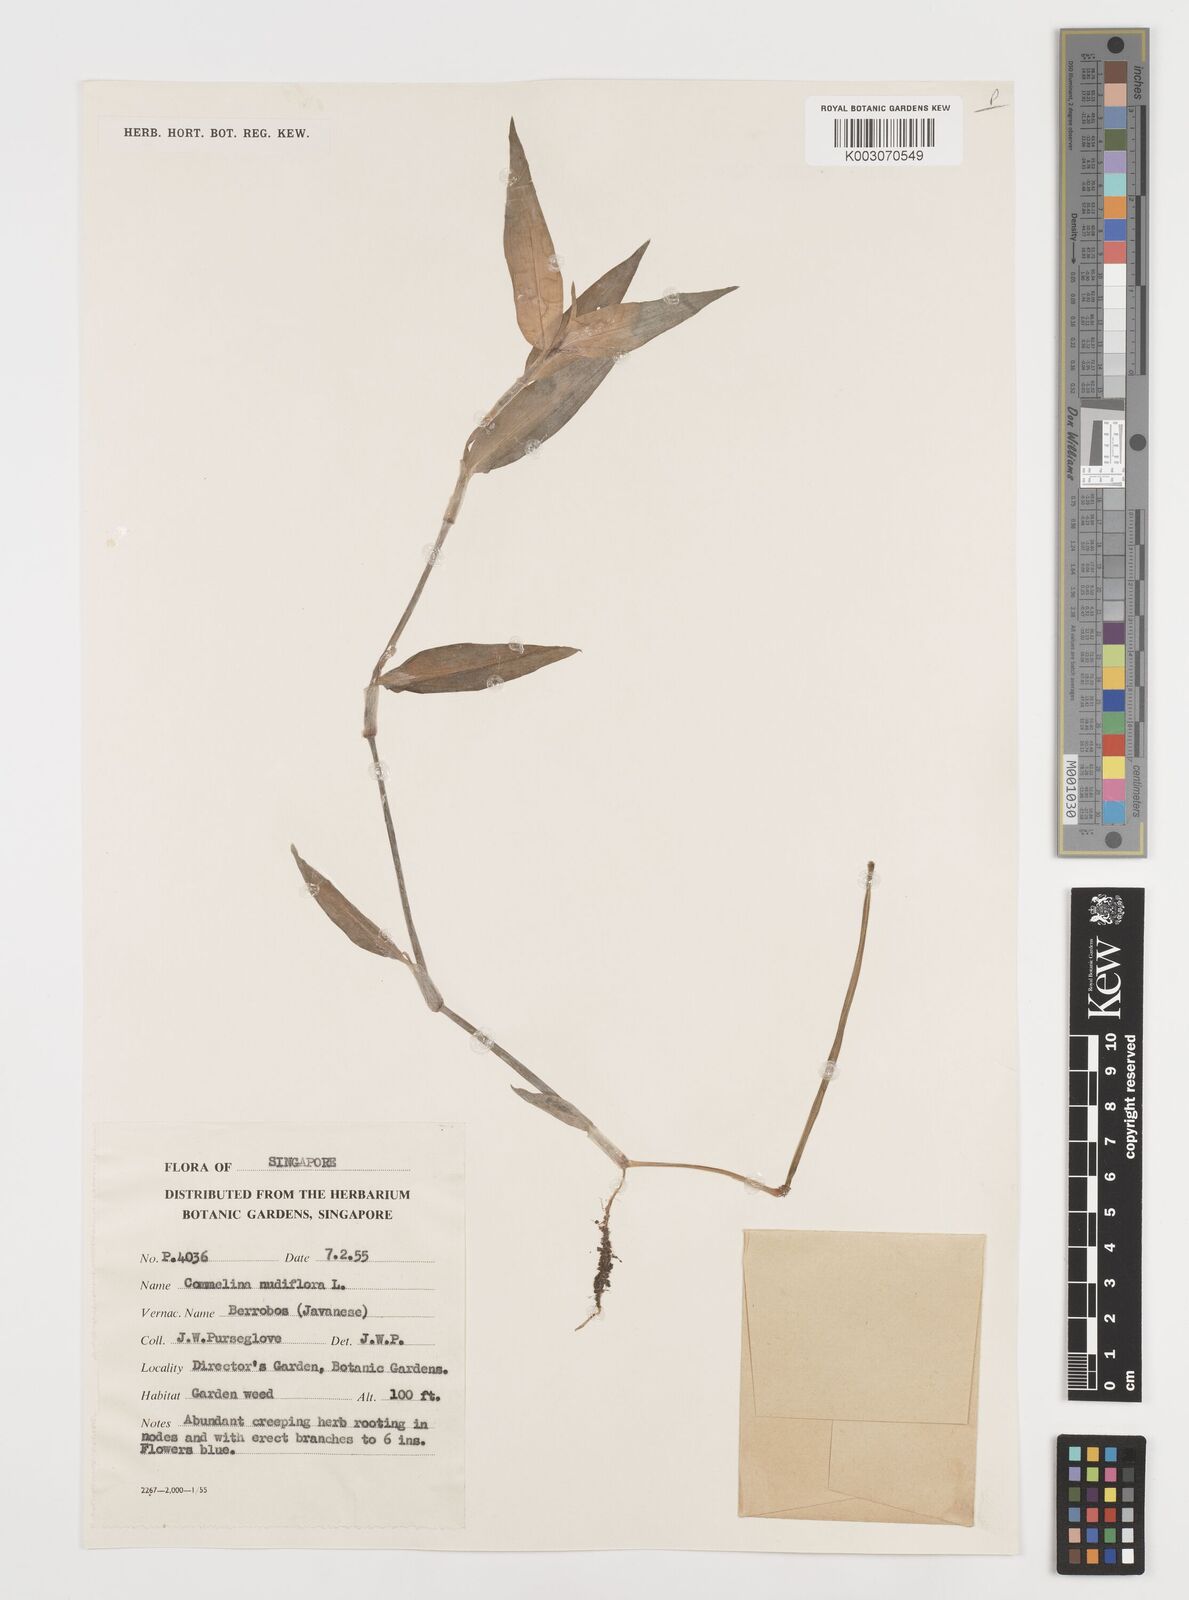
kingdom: Plantae
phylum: Tracheophyta
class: Liliopsida
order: Commelinales
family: Commelinaceae
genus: Commelina
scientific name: Commelina clavata
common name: Willow leaved dayflower
